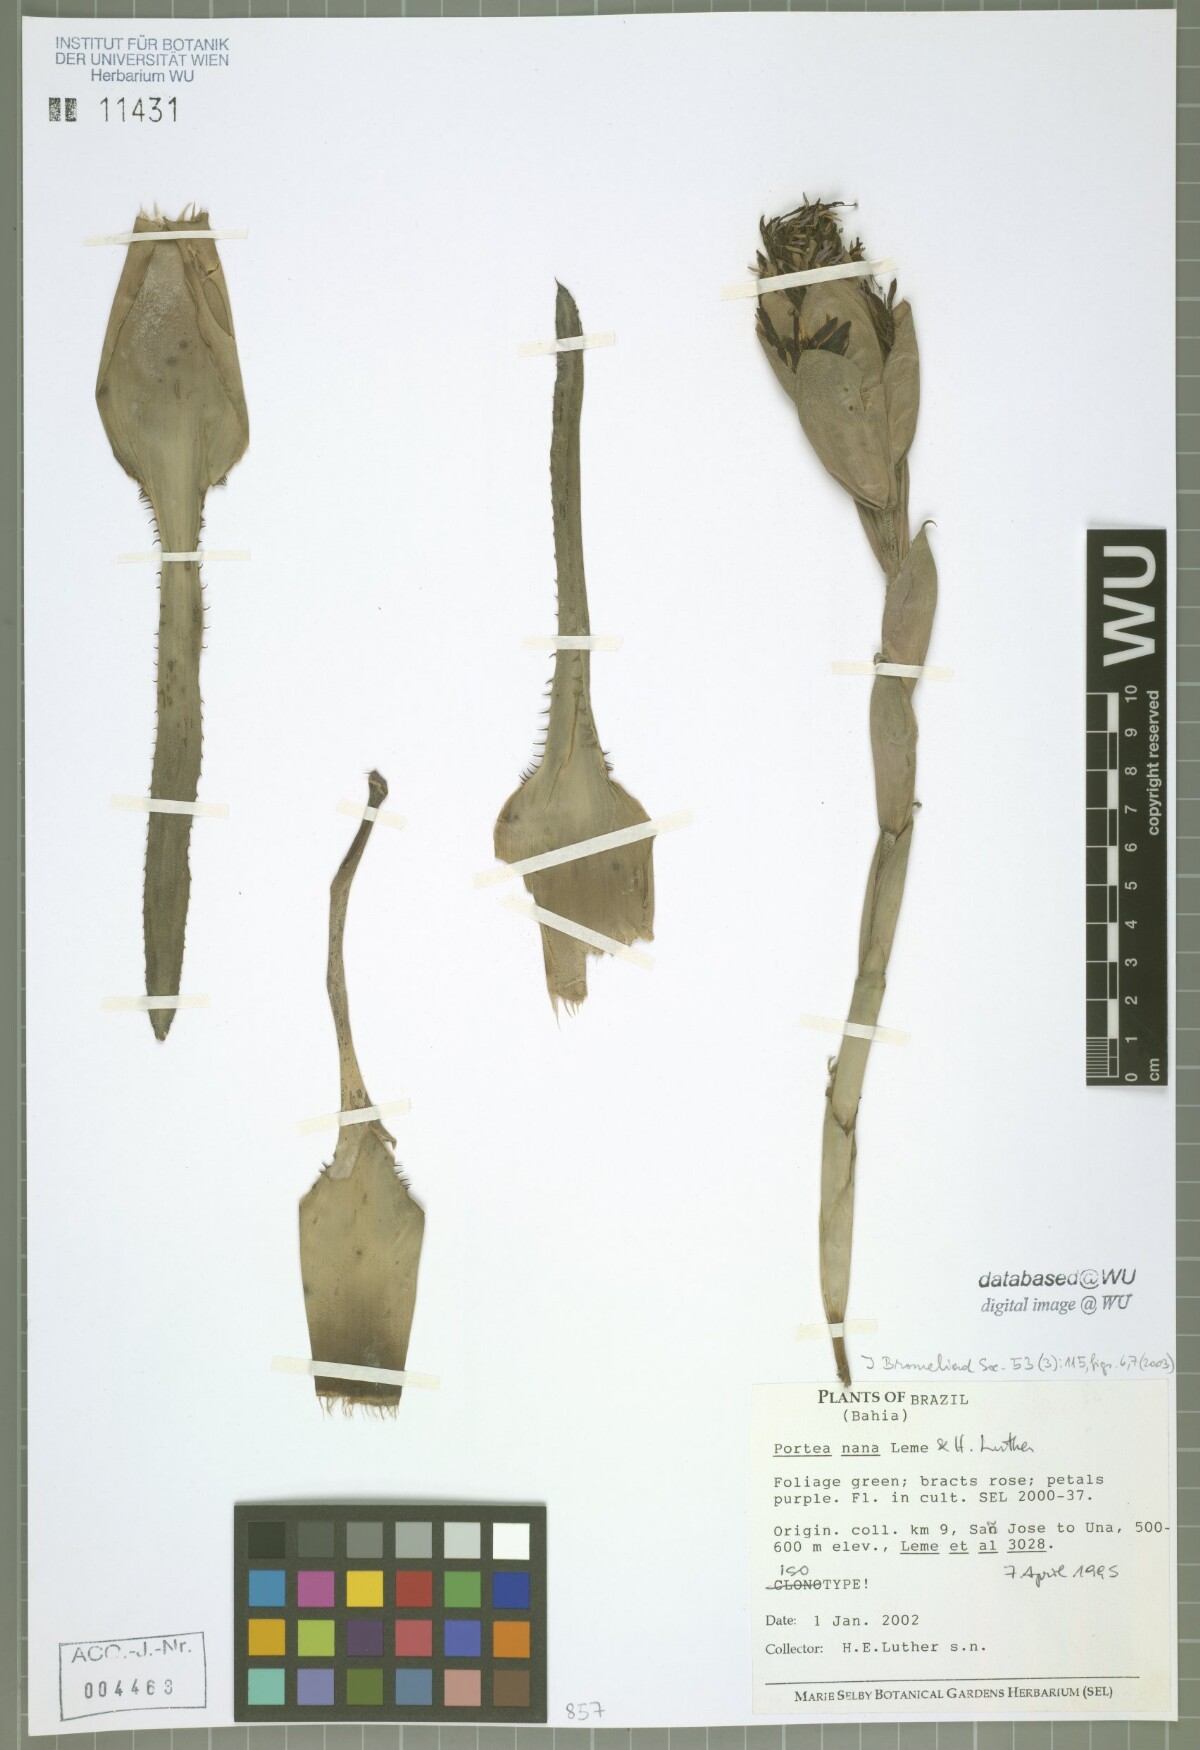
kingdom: Plantae
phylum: Tracheophyta
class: Liliopsida
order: Poales
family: Bromeliaceae
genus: Portea
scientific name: Portea nana
